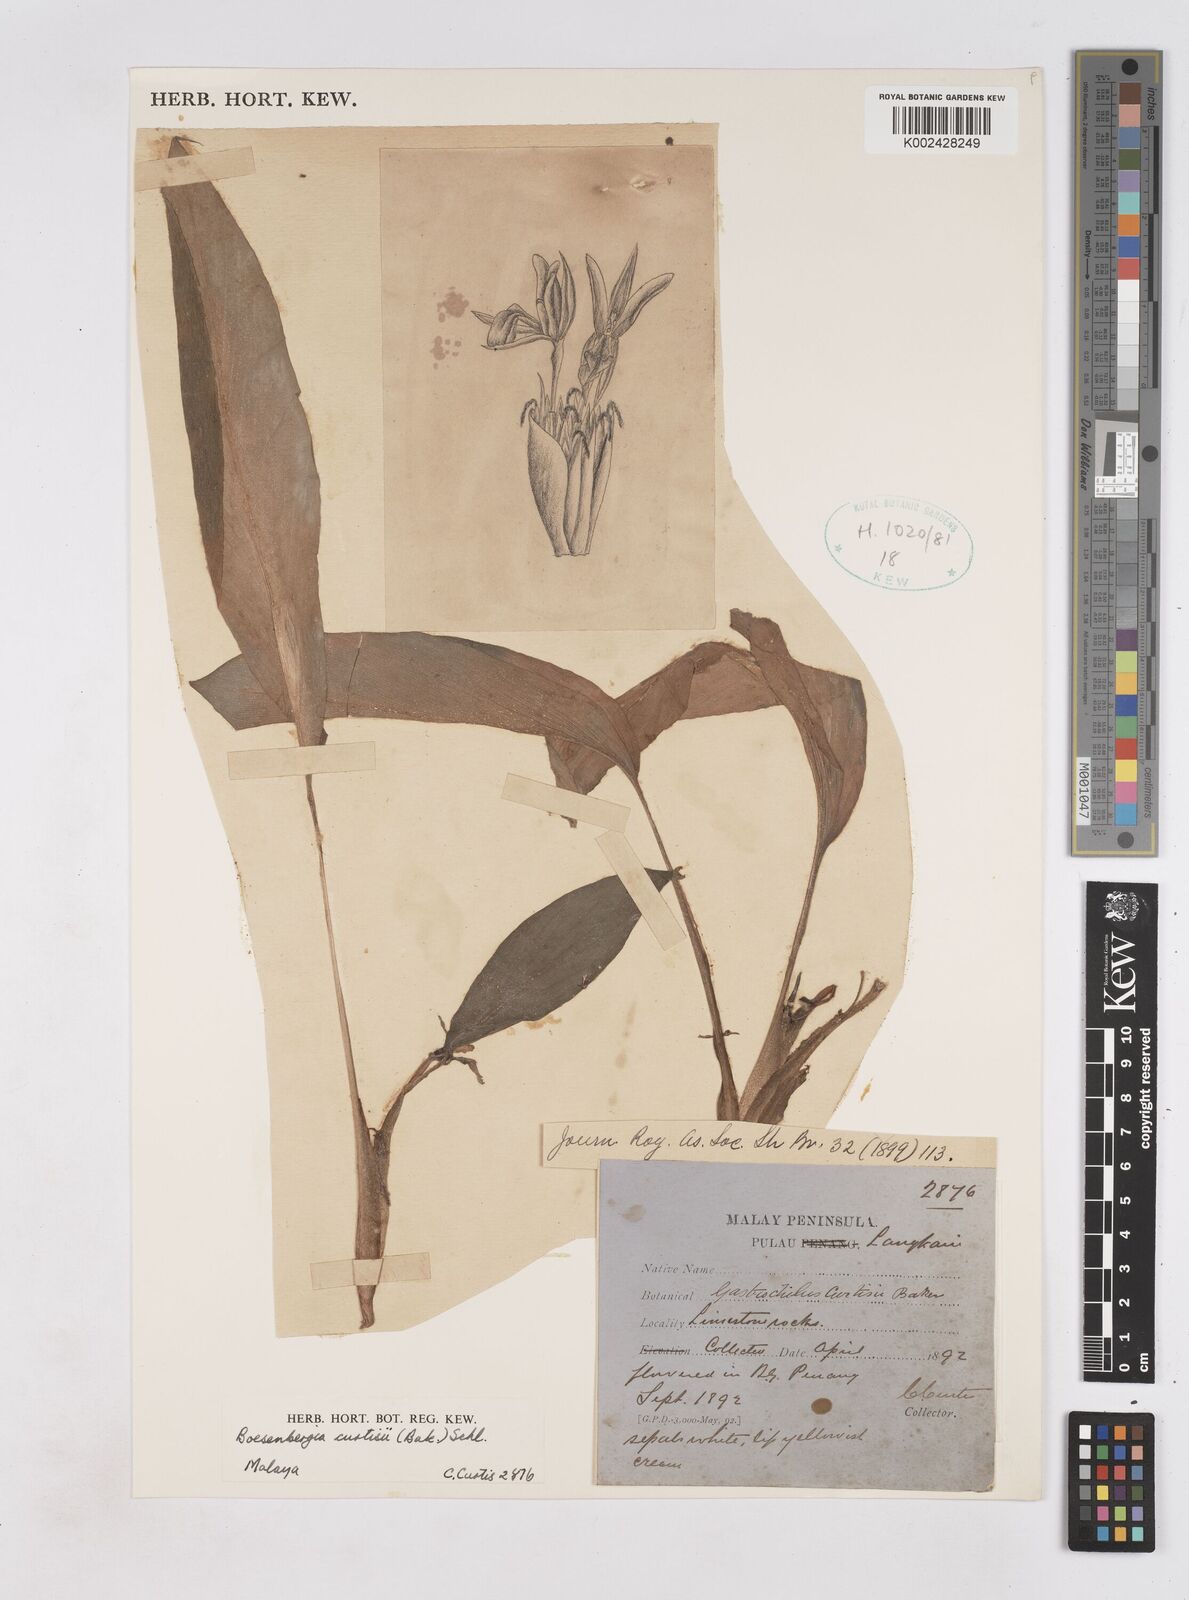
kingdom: Plantae
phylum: Tracheophyta
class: Liliopsida
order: Zingiberales
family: Zingiberaceae
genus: Boesenbergia
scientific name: Boesenbergia curtisii
